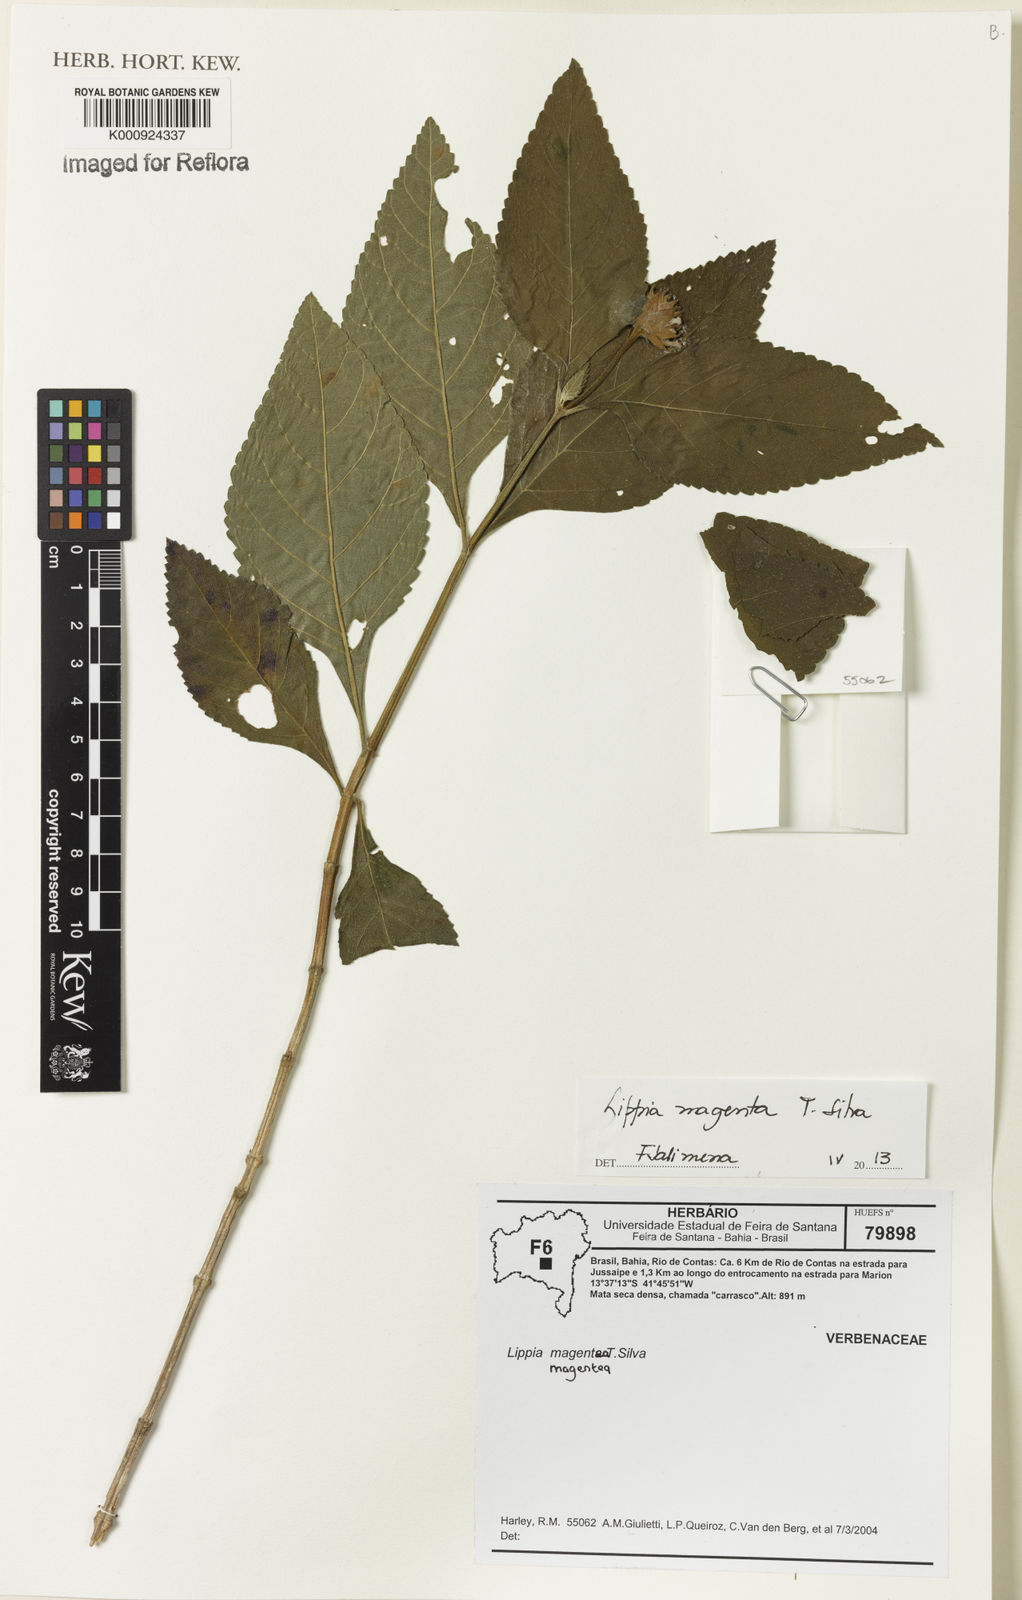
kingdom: Plantae
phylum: Tracheophyta
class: Magnoliopsida
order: Lamiales
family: Verbenaceae
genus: Lippia
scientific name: Lippia magentea
